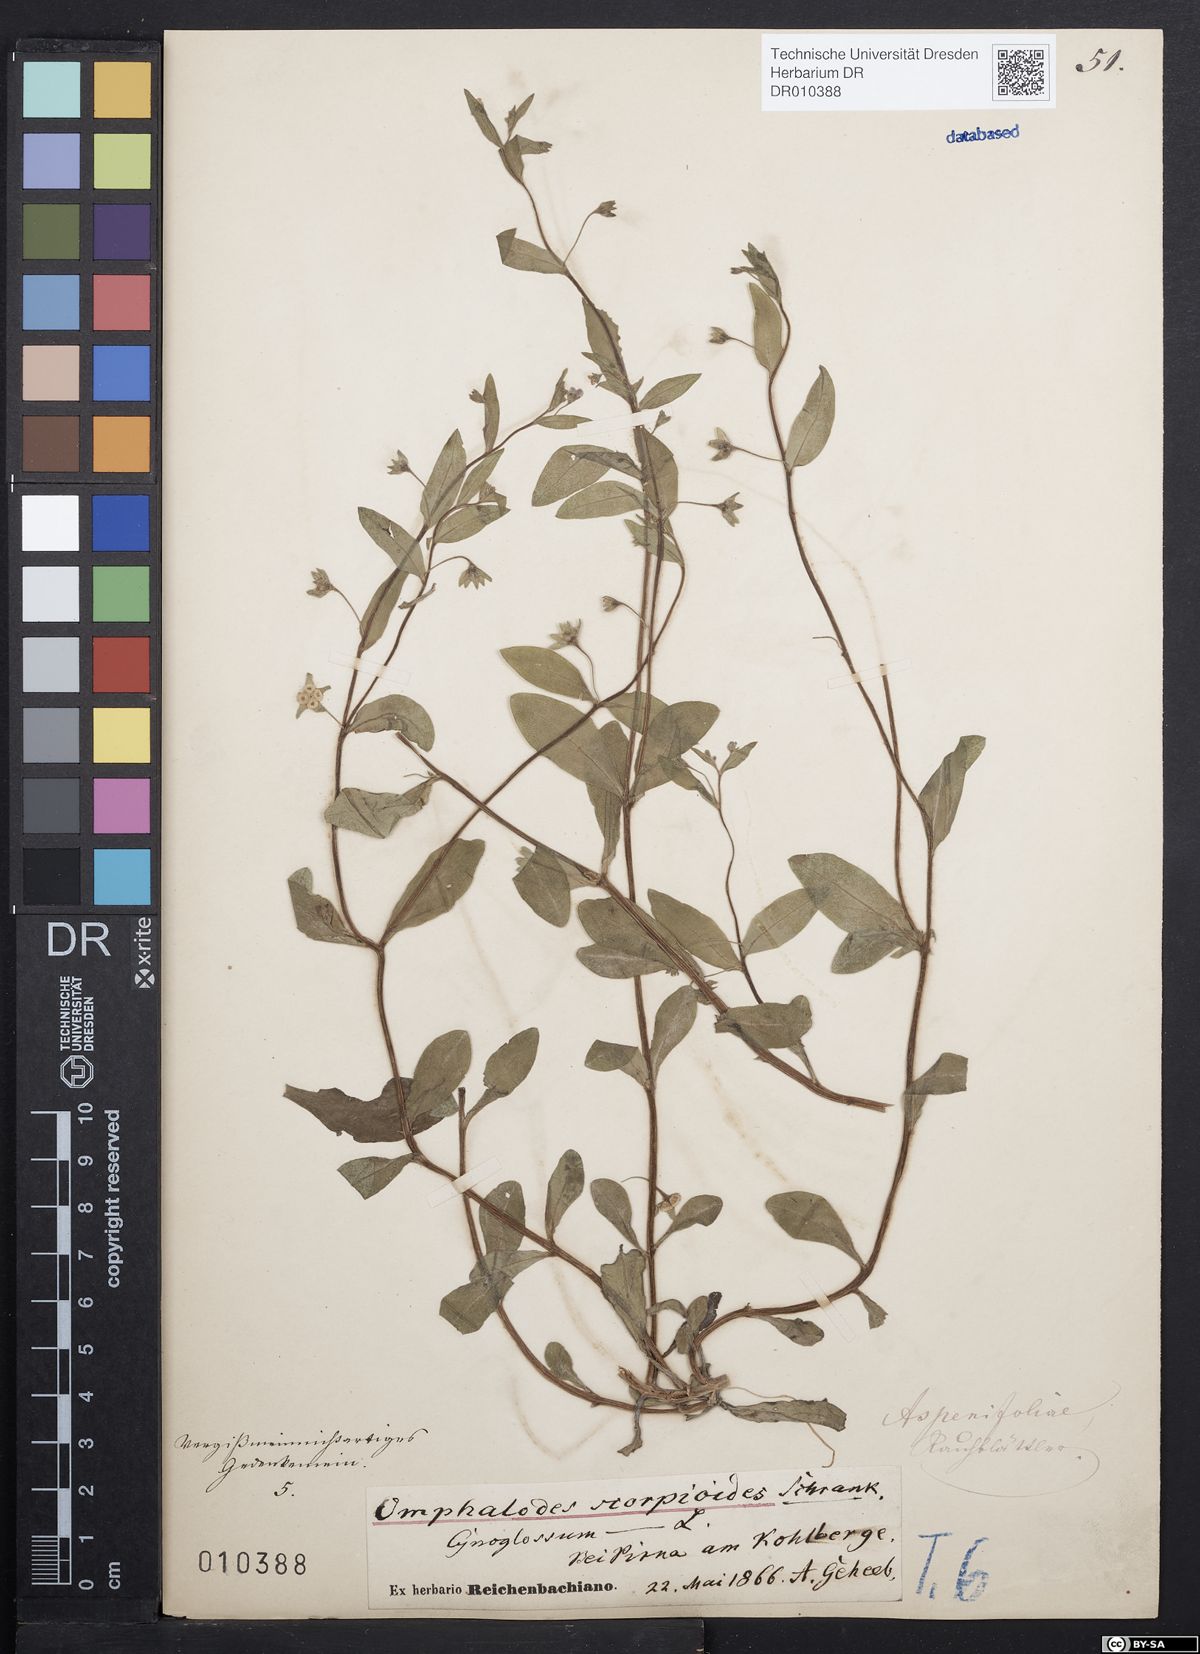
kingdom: Plantae
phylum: Tracheophyta
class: Magnoliopsida
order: Boraginales
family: Boraginaceae
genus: Memoremea
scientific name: Memoremea scorpioides
